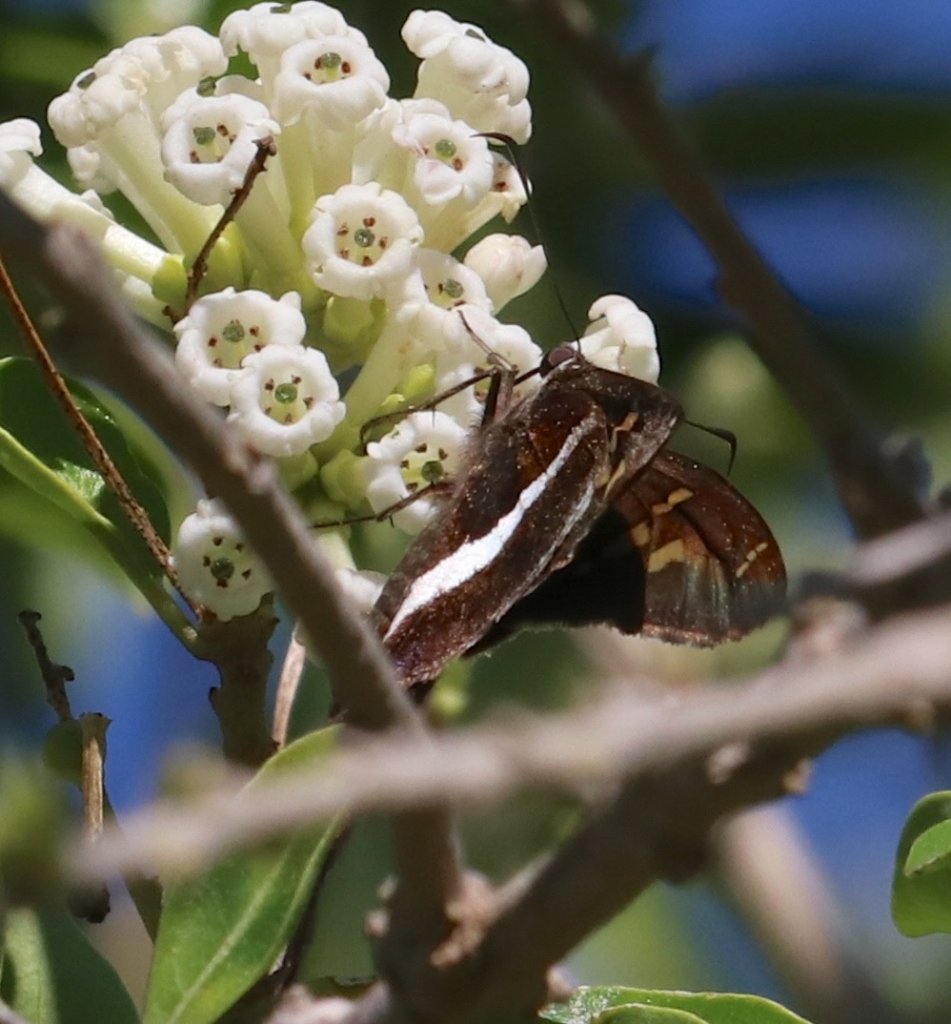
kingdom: Animalia
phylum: Arthropoda
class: Insecta
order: Lepidoptera
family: Hesperiidae
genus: Chioides
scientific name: Chioides catillus
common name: White-striped Longtail
